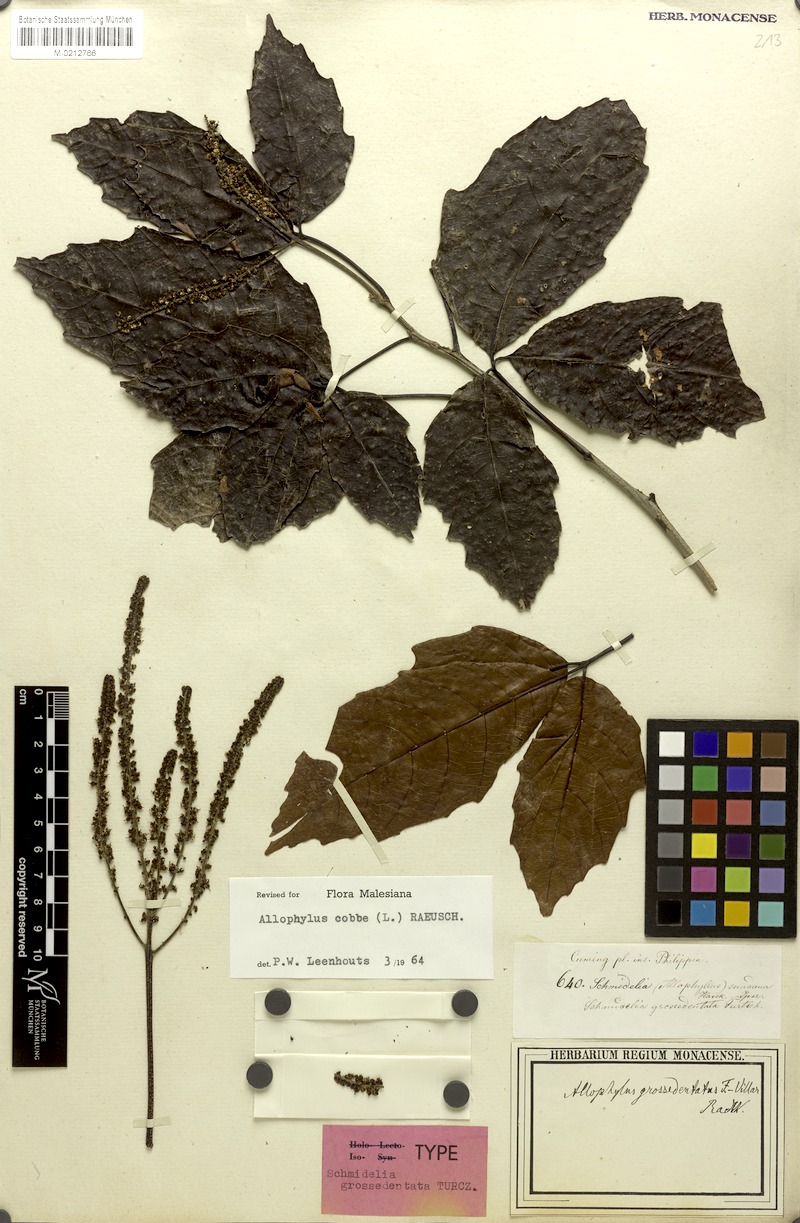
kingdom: Plantae
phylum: Tracheophyta
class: Magnoliopsida
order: Sapindales
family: Sapindaceae
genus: Allophylus
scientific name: Allophylus grossedentatus
